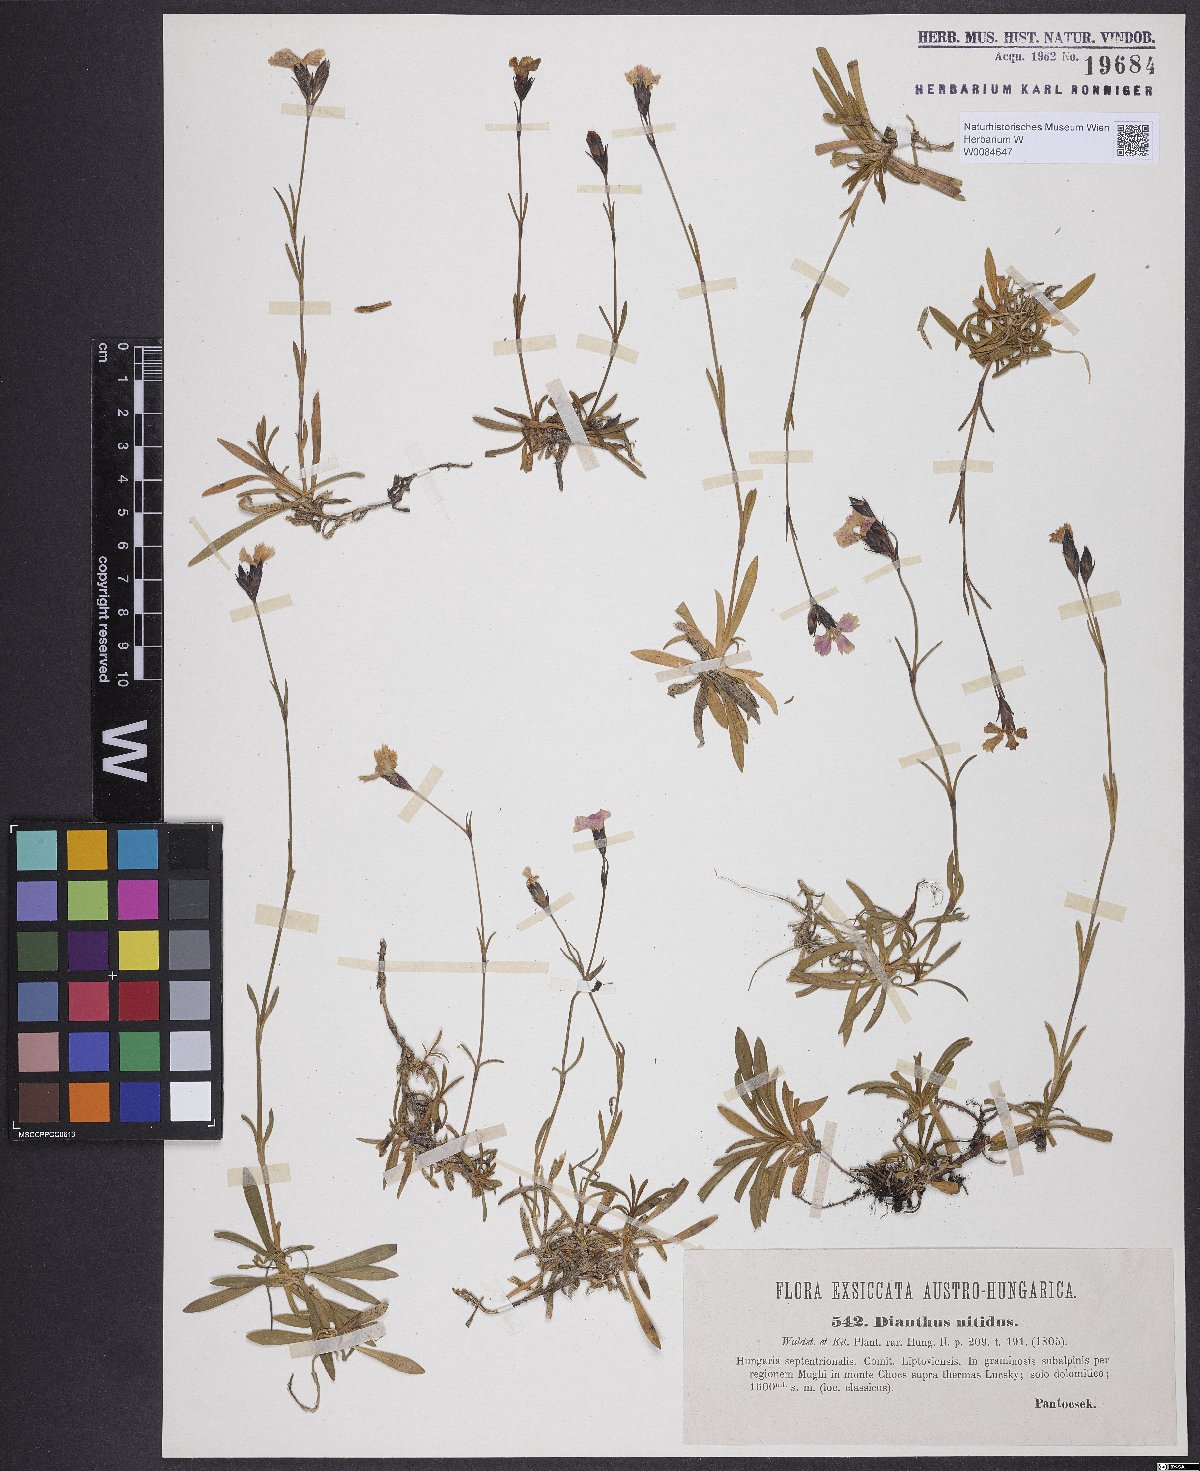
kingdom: Plantae
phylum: Tracheophyta
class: Magnoliopsida
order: Caryophyllales
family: Caryophyllaceae
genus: Dianthus
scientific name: Dianthus nitidus
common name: Carpathian glossy pink
